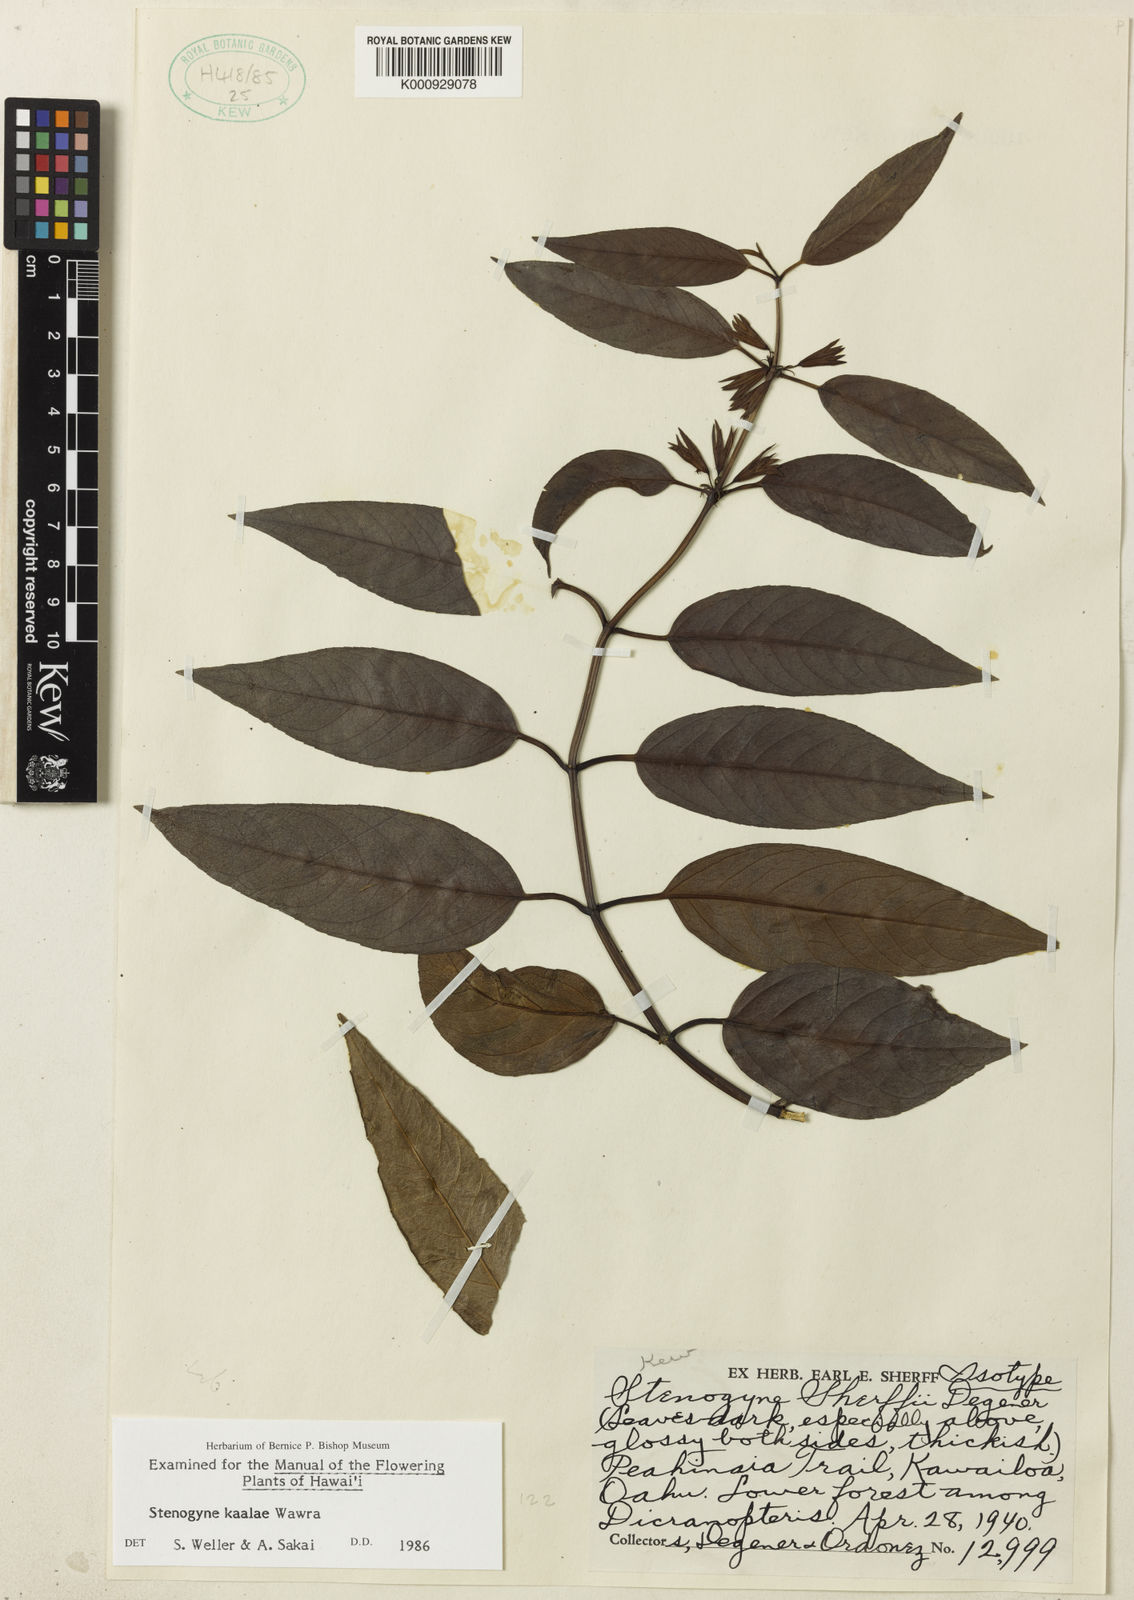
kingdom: Plantae
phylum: Tracheophyta
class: Magnoliopsida
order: Lamiales
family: Lamiaceae
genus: Stenogyne
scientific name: Stenogyne kaalae
